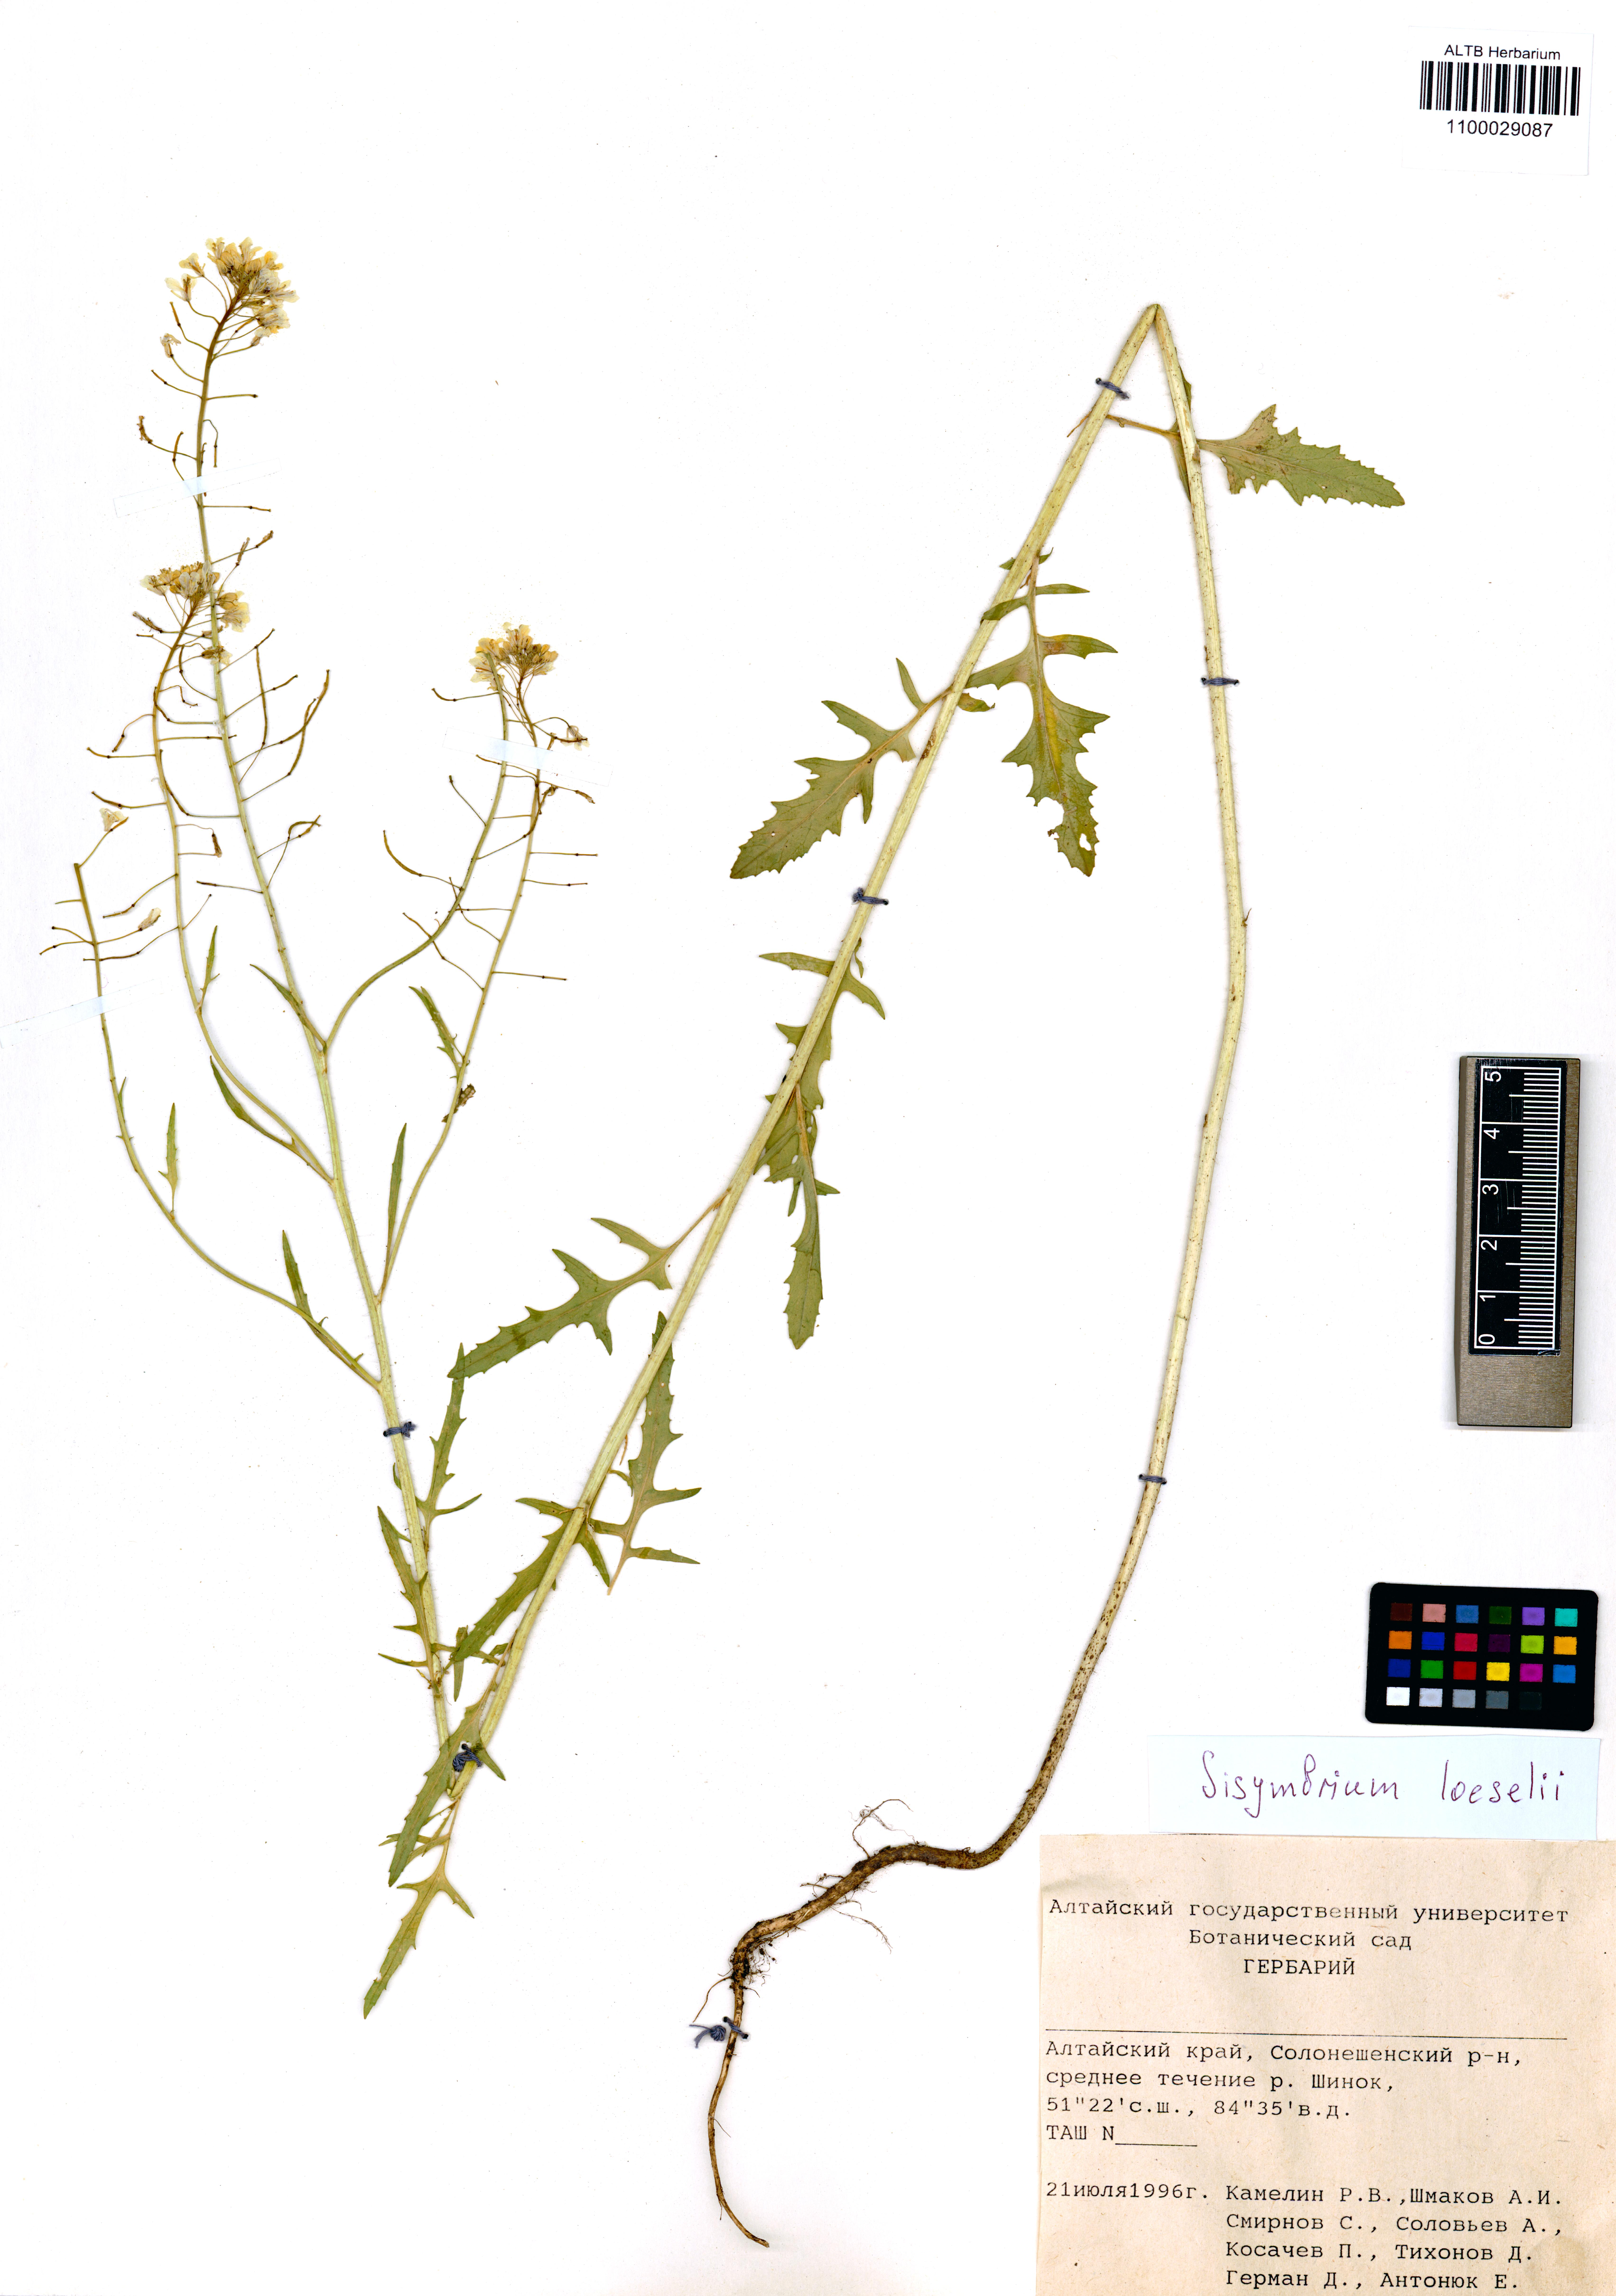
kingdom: Plantae
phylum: Tracheophyta
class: Magnoliopsida
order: Brassicales
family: Brassicaceae
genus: Sisymbrium
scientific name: Sisymbrium loeselii
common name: False london-rocket
